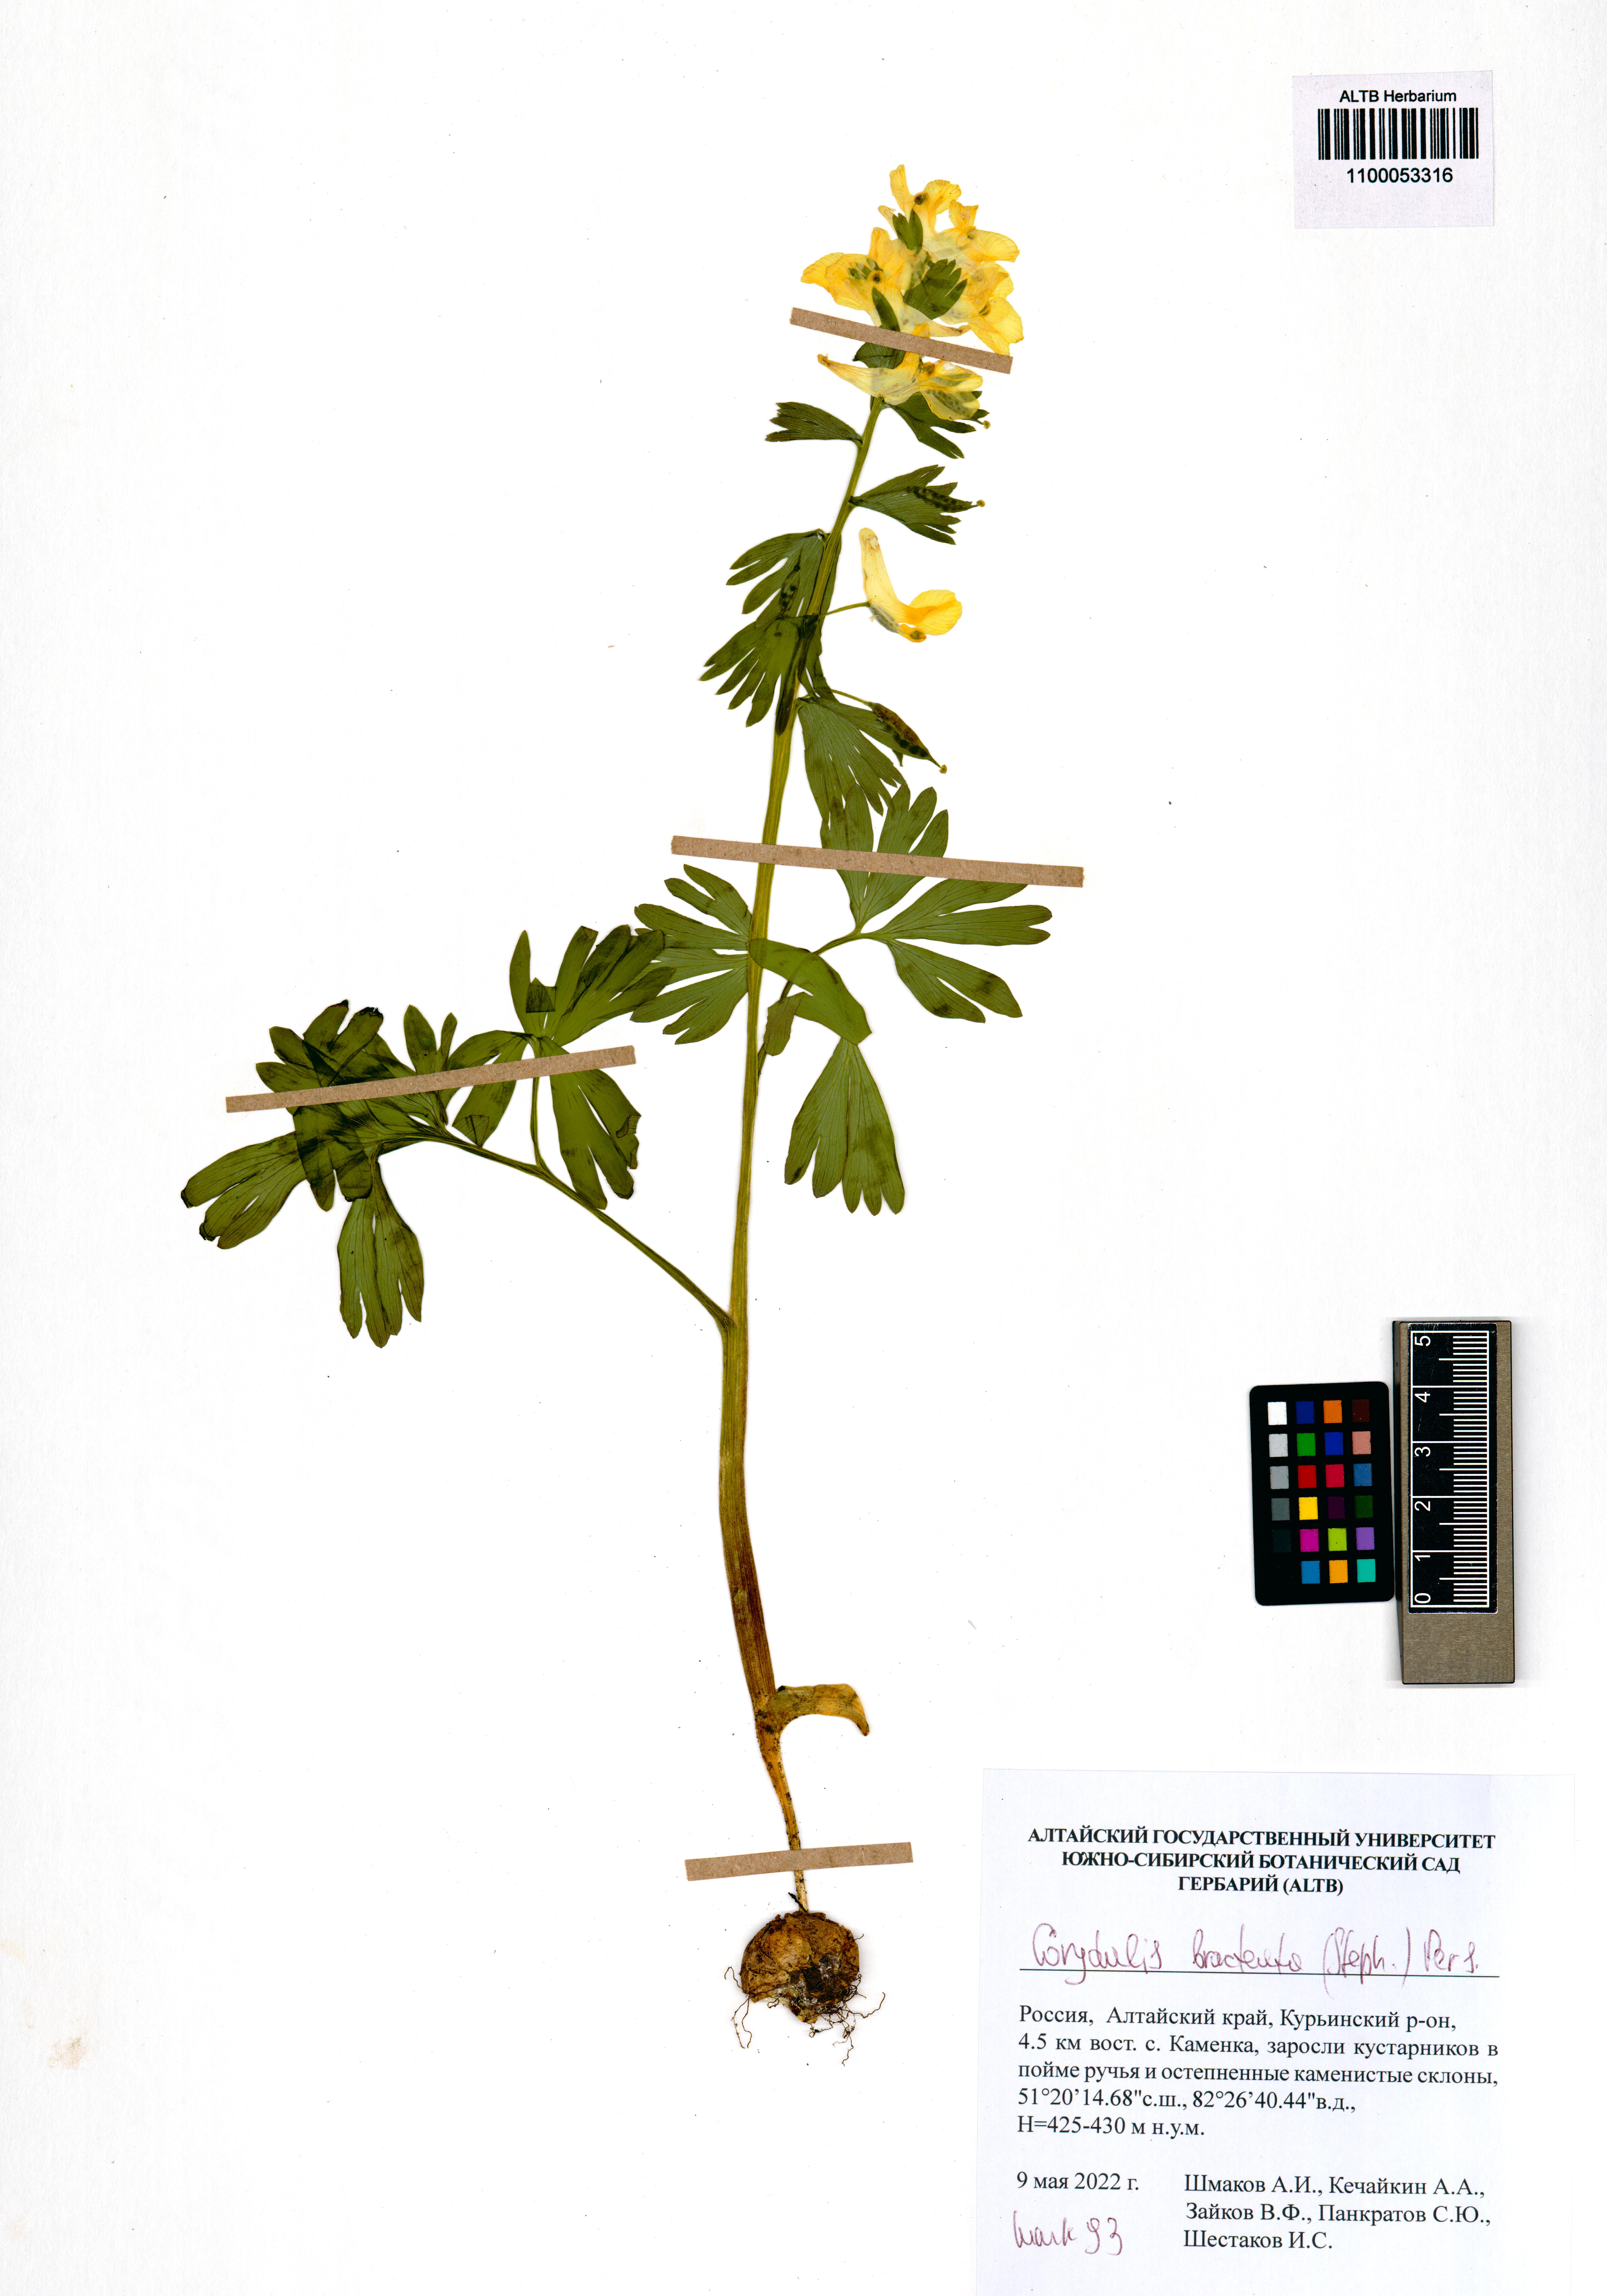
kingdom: Plantae
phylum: Tracheophyta
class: Magnoliopsida
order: Ranunculales
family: Papaveraceae
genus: Corydalis
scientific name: Corydalis bracteata
